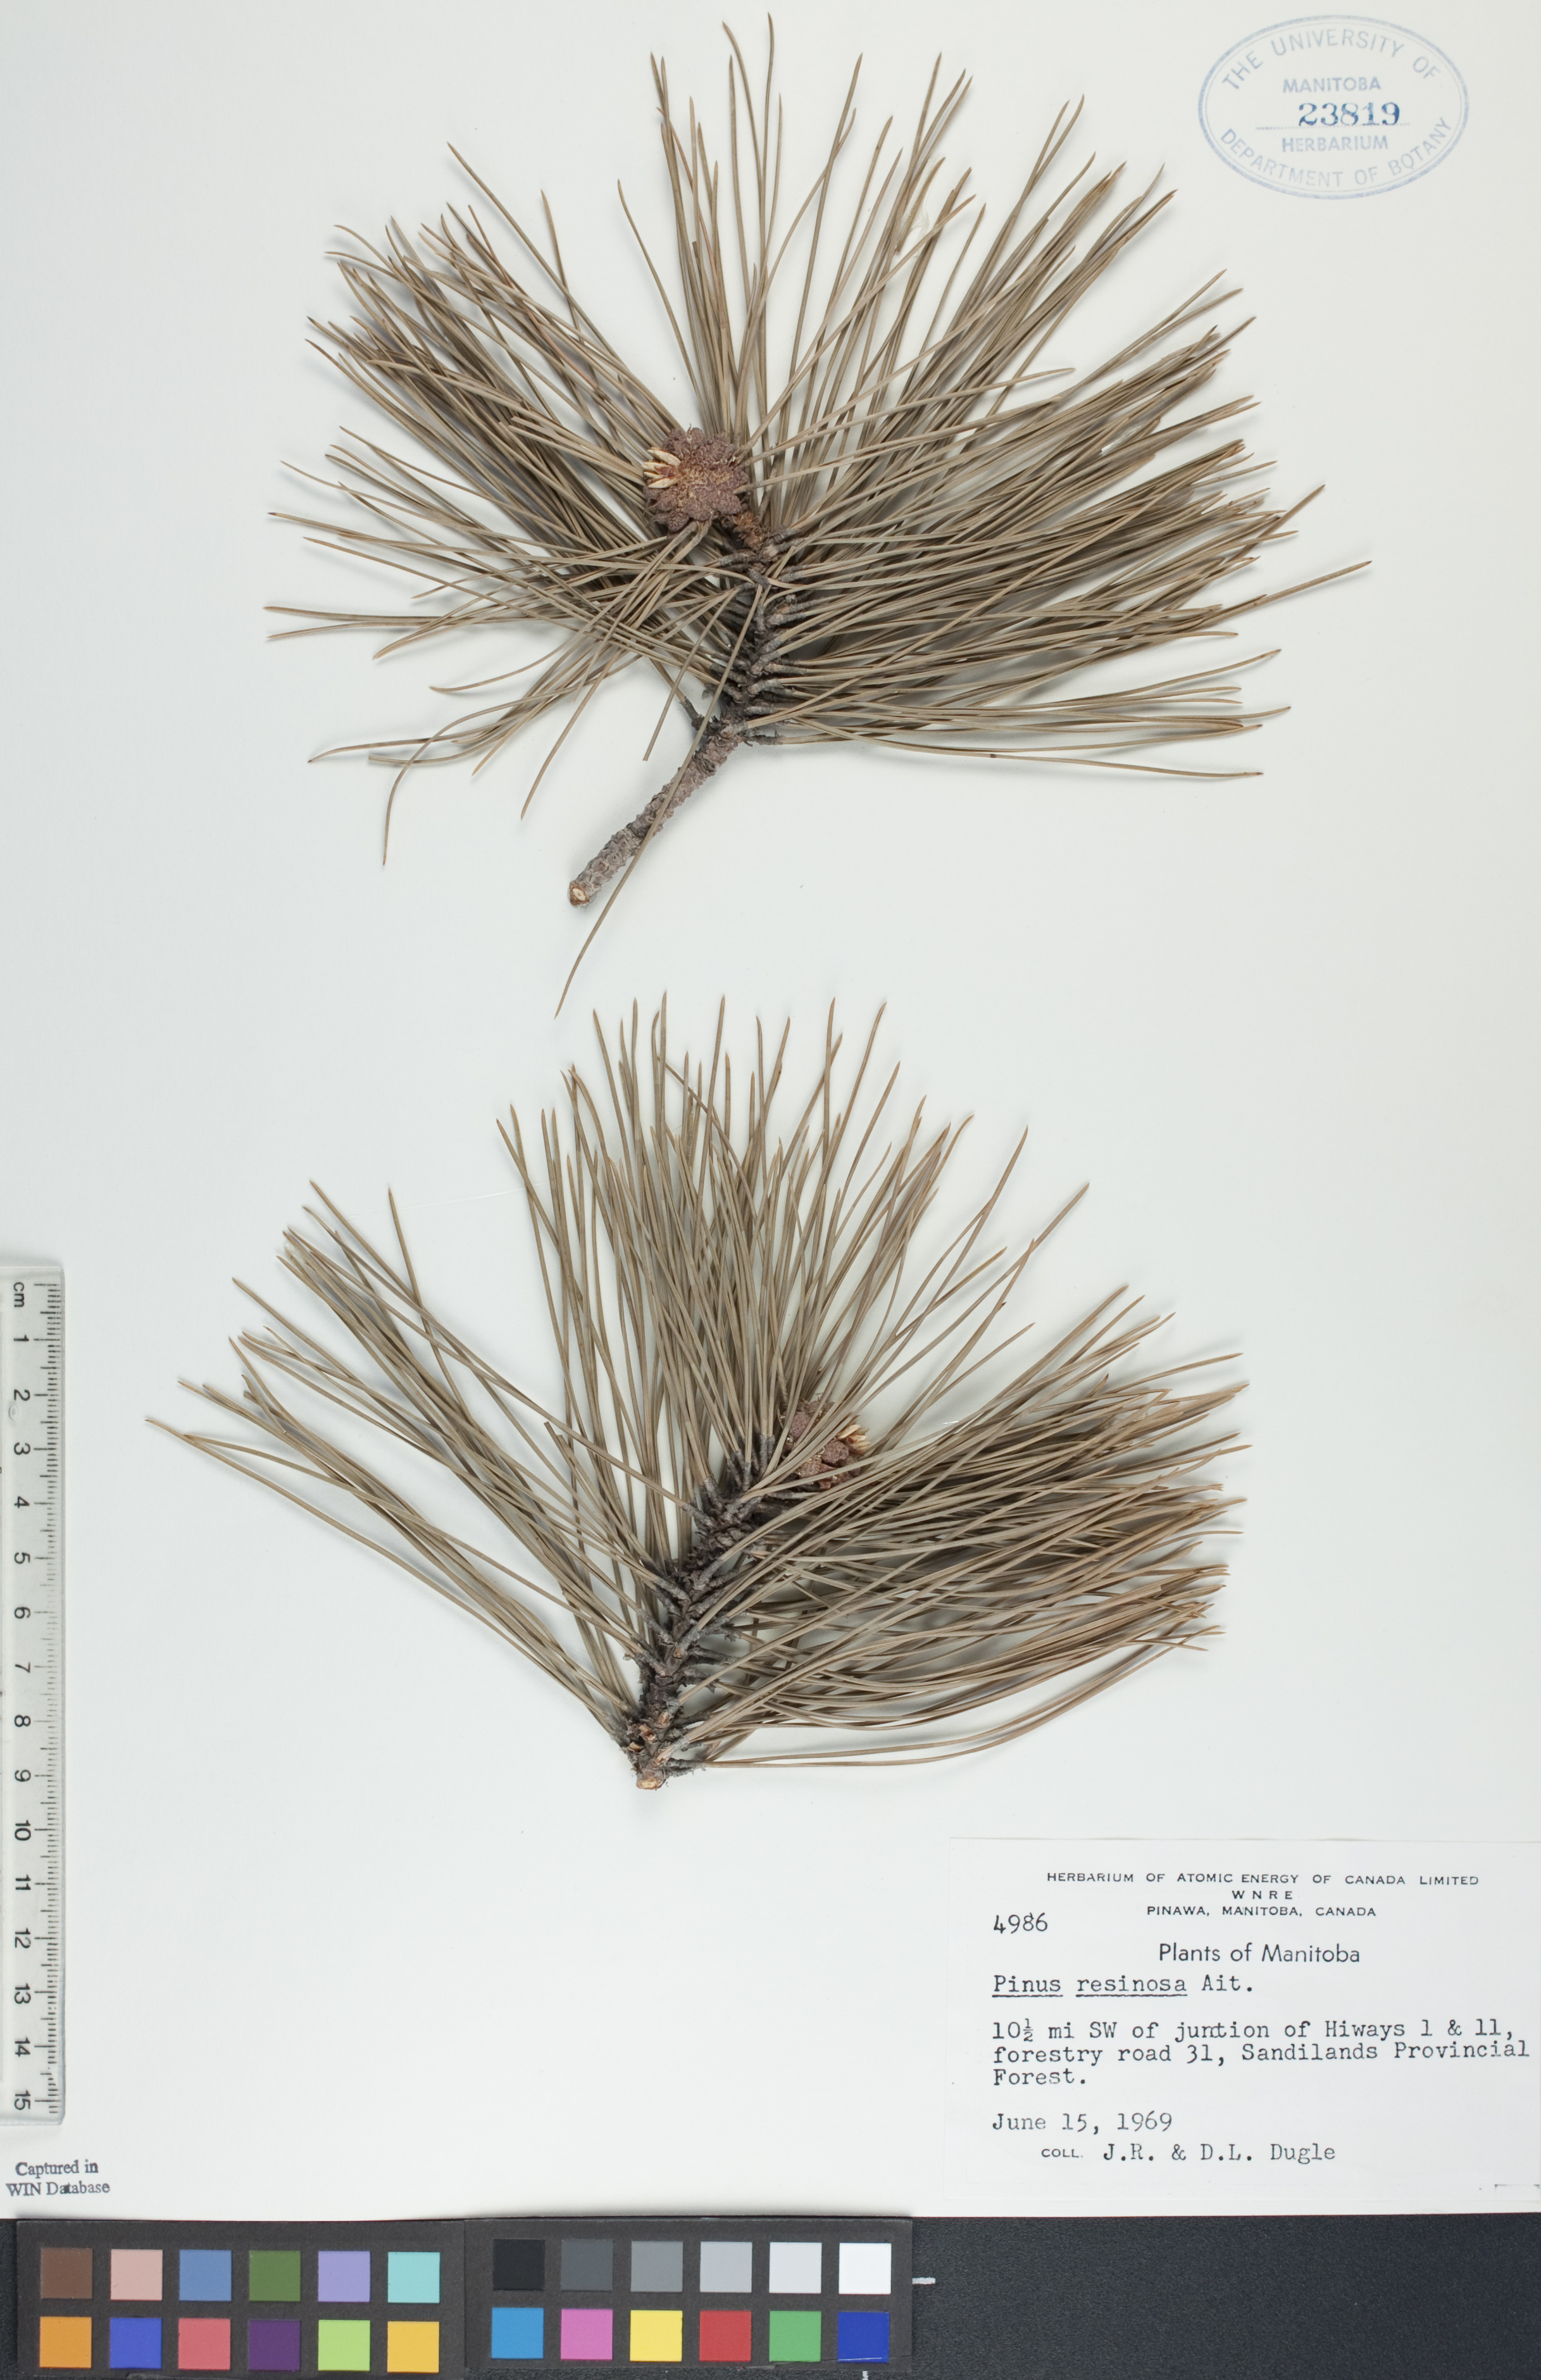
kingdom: Plantae
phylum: Tracheophyta
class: Pinopsida
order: Pinales
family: Pinaceae
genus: Pinus
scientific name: Pinus resinosa
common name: Norway pine
